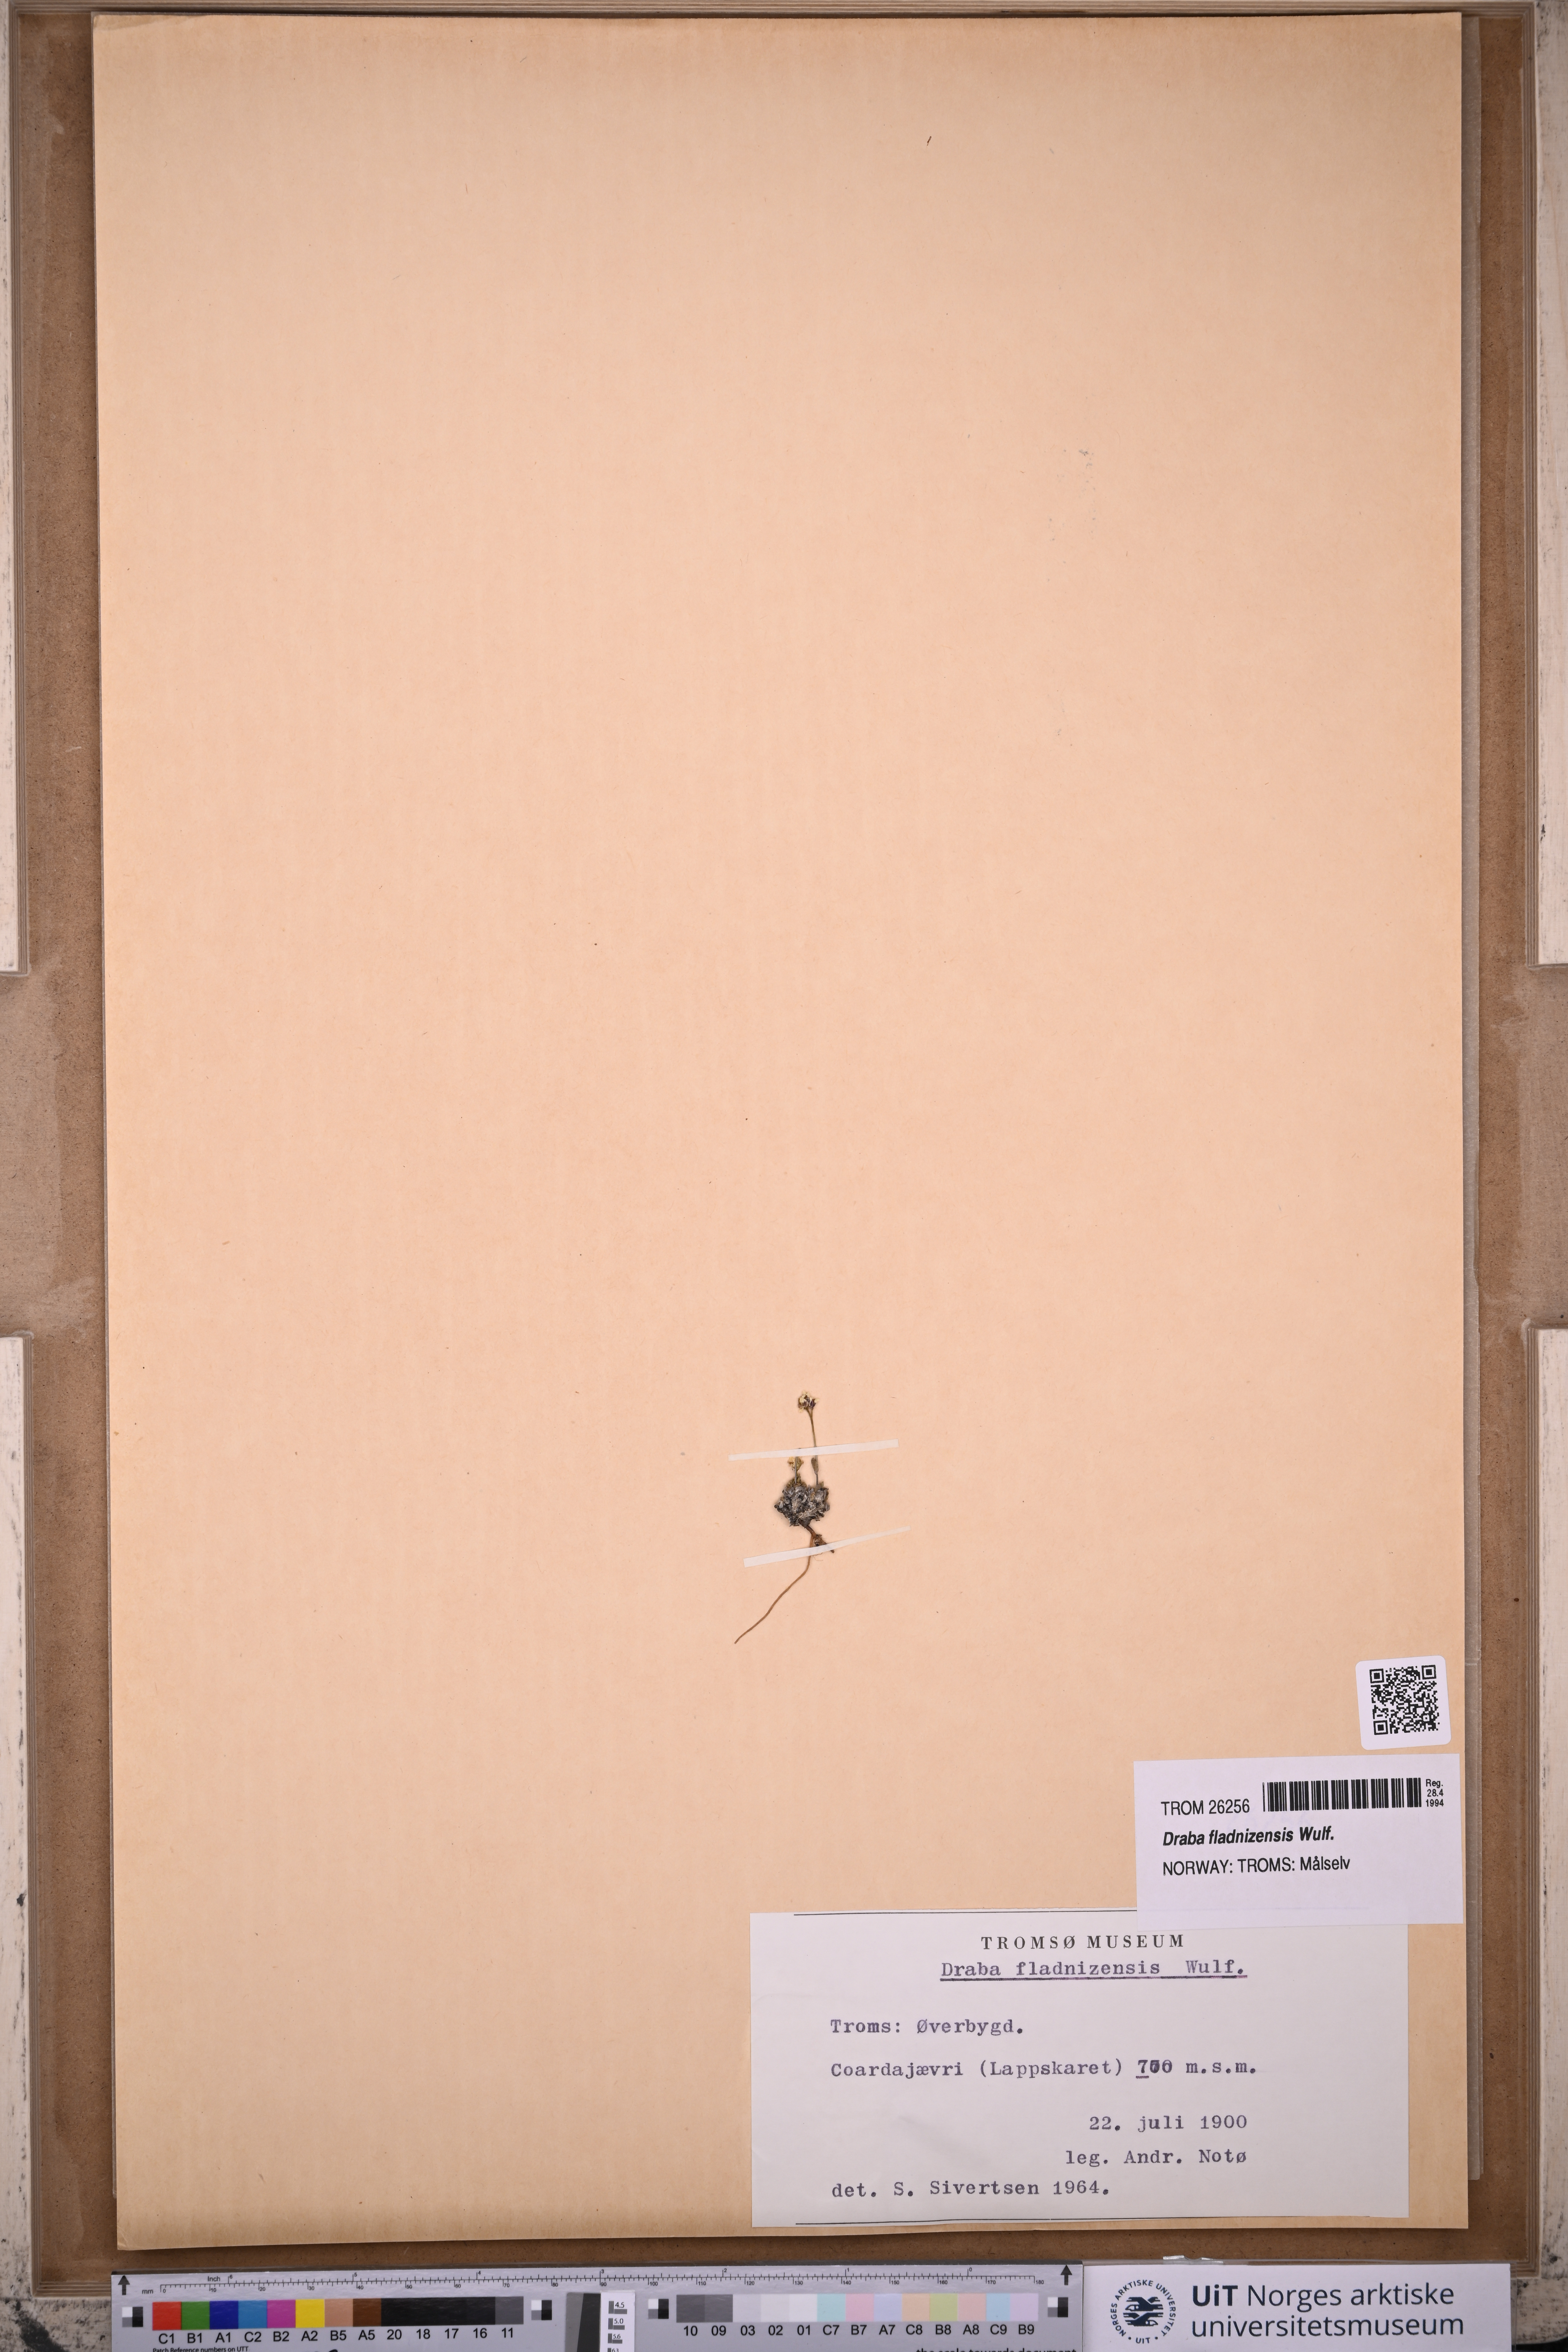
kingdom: Plantae
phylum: Tracheophyta
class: Magnoliopsida
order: Brassicales
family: Brassicaceae
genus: Draba
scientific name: Draba fladnizensis
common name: Austrian draba
